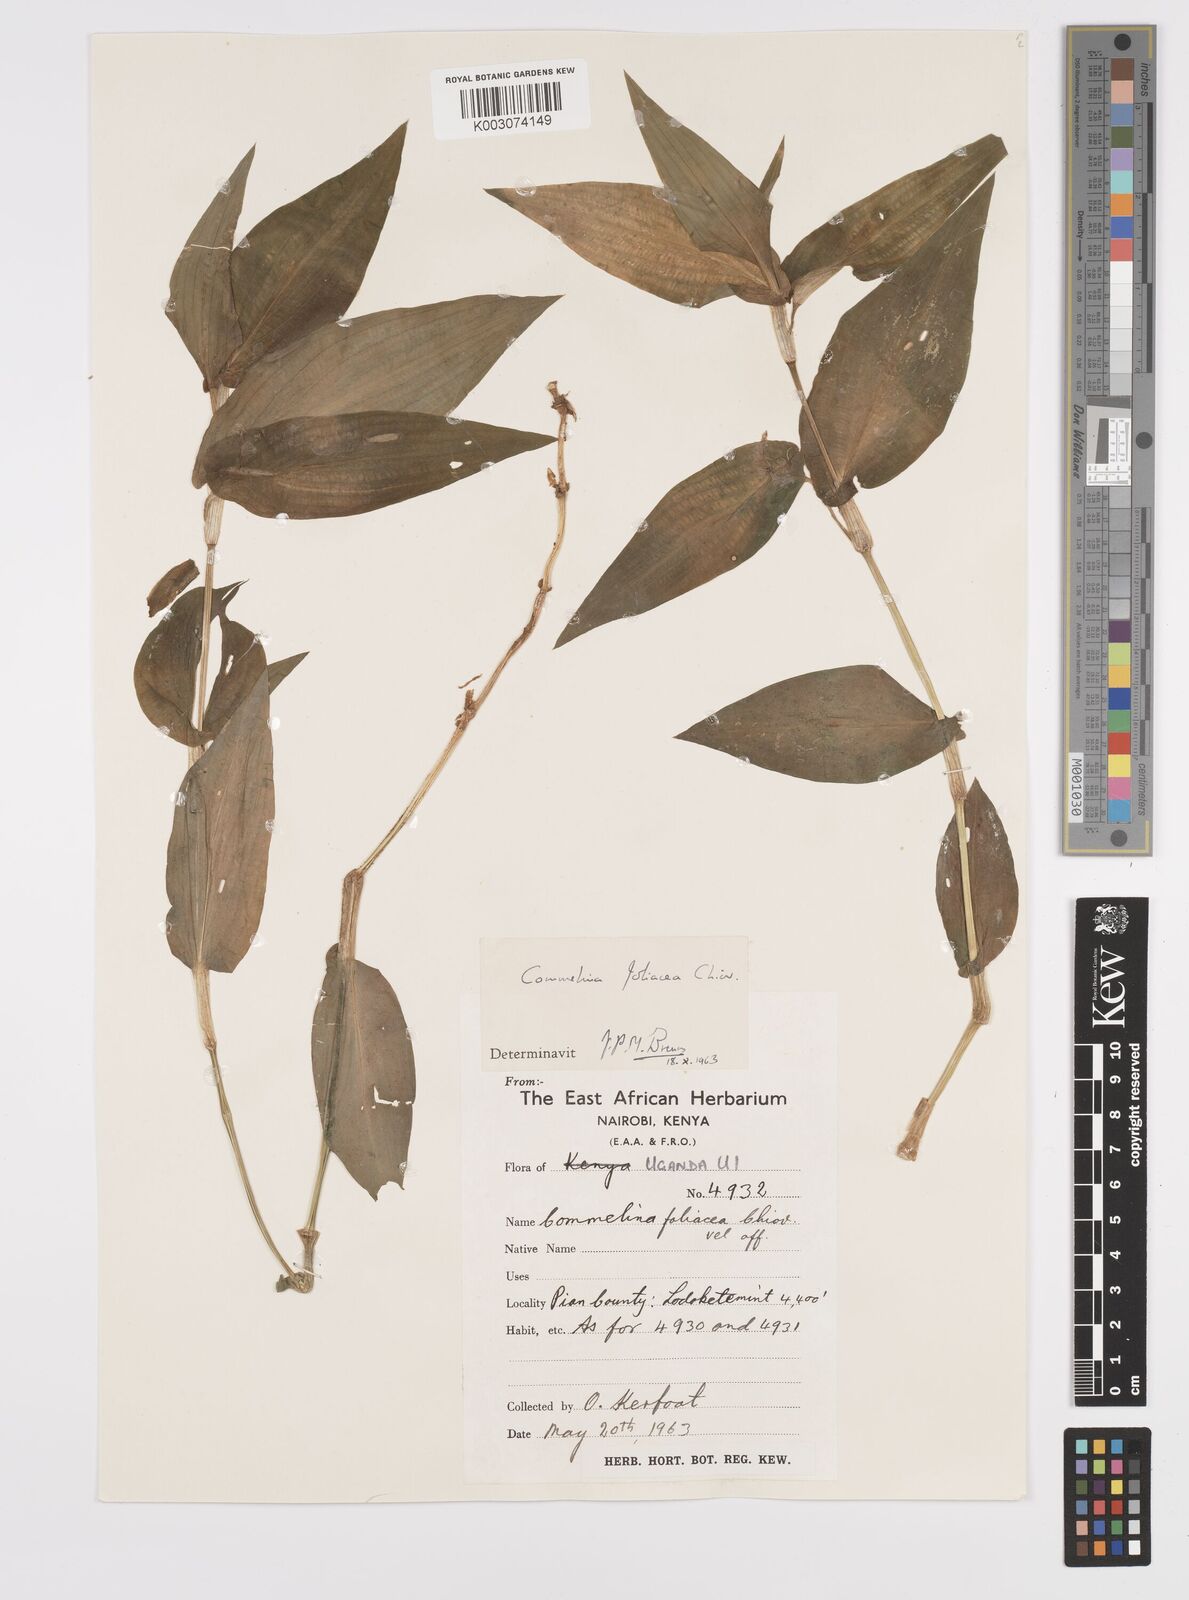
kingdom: Plantae
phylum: Tracheophyta
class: Liliopsida
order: Commelinales
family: Commelinaceae
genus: Commelina
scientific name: Commelina foliacea
